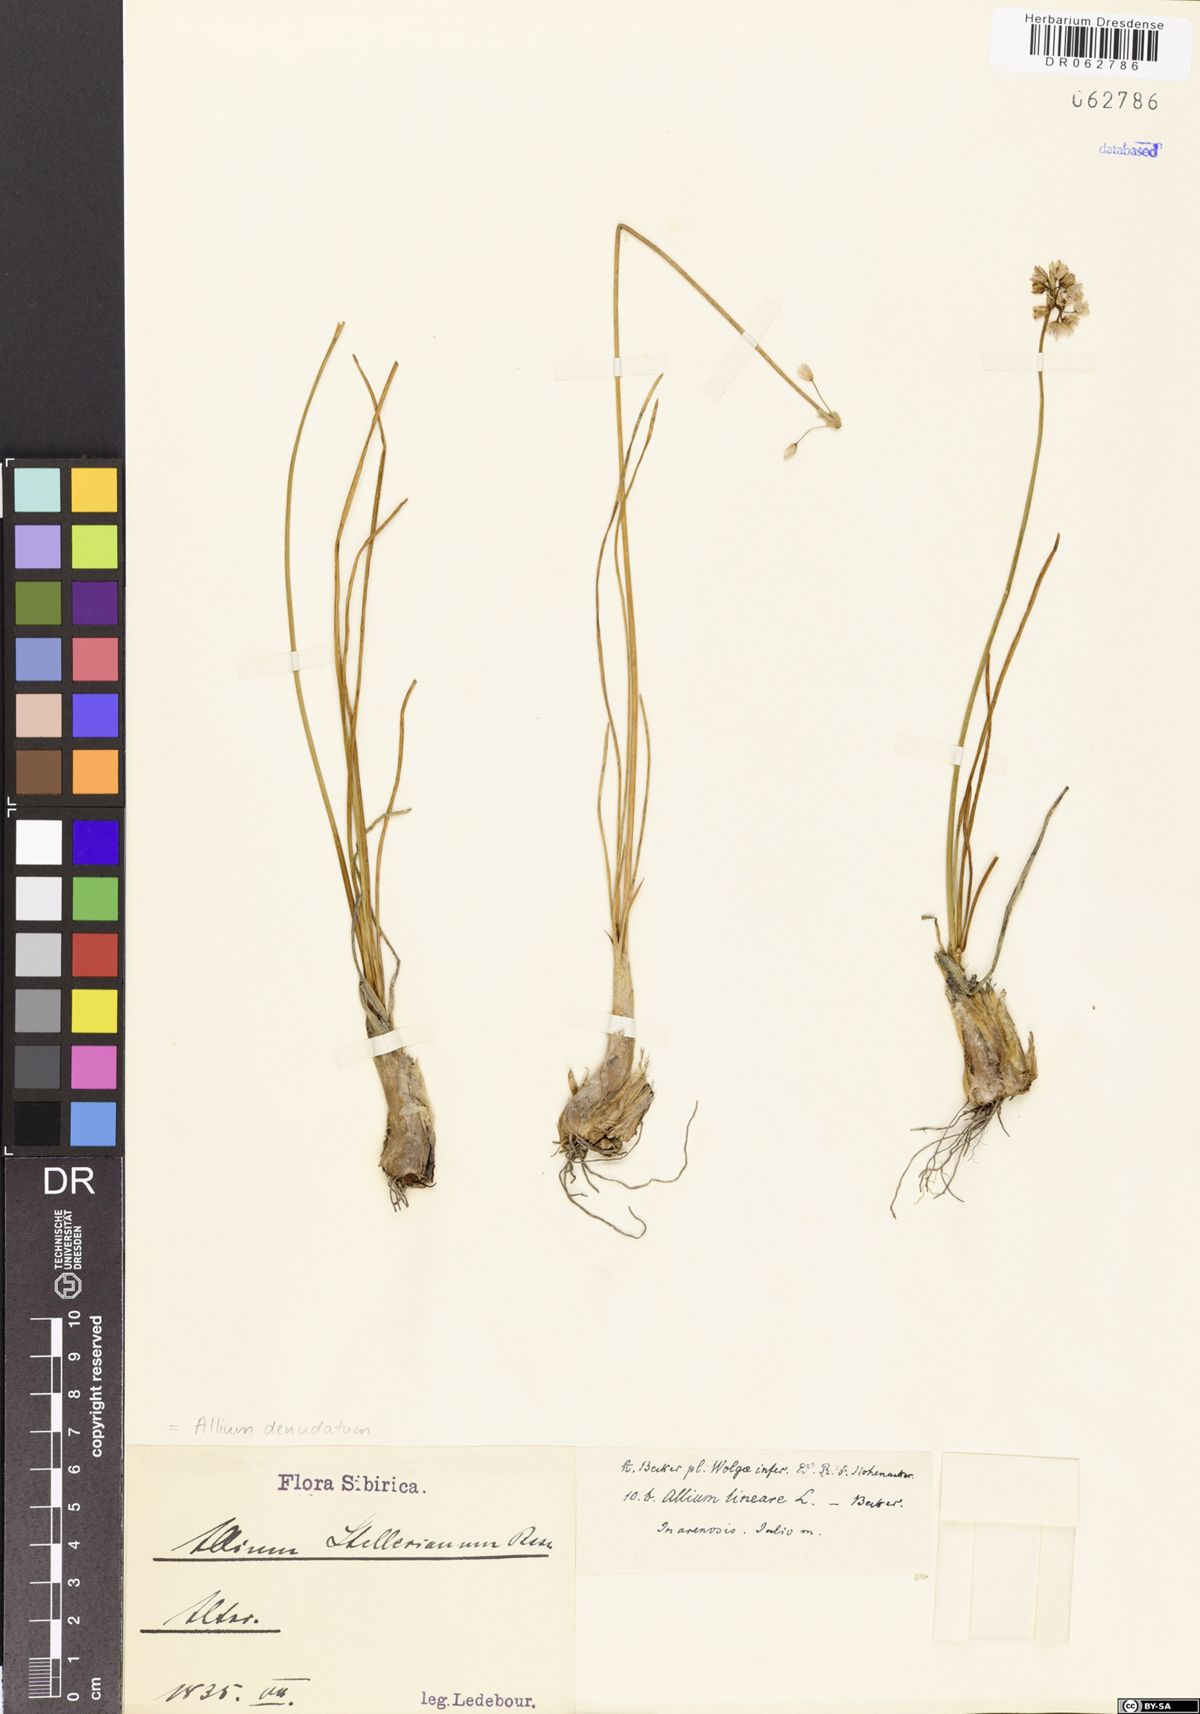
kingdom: Plantae
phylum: Tracheophyta
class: Liliopsida
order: Asparagales
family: Amaryllidaceae
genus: Allium
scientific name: Allium denudatum
